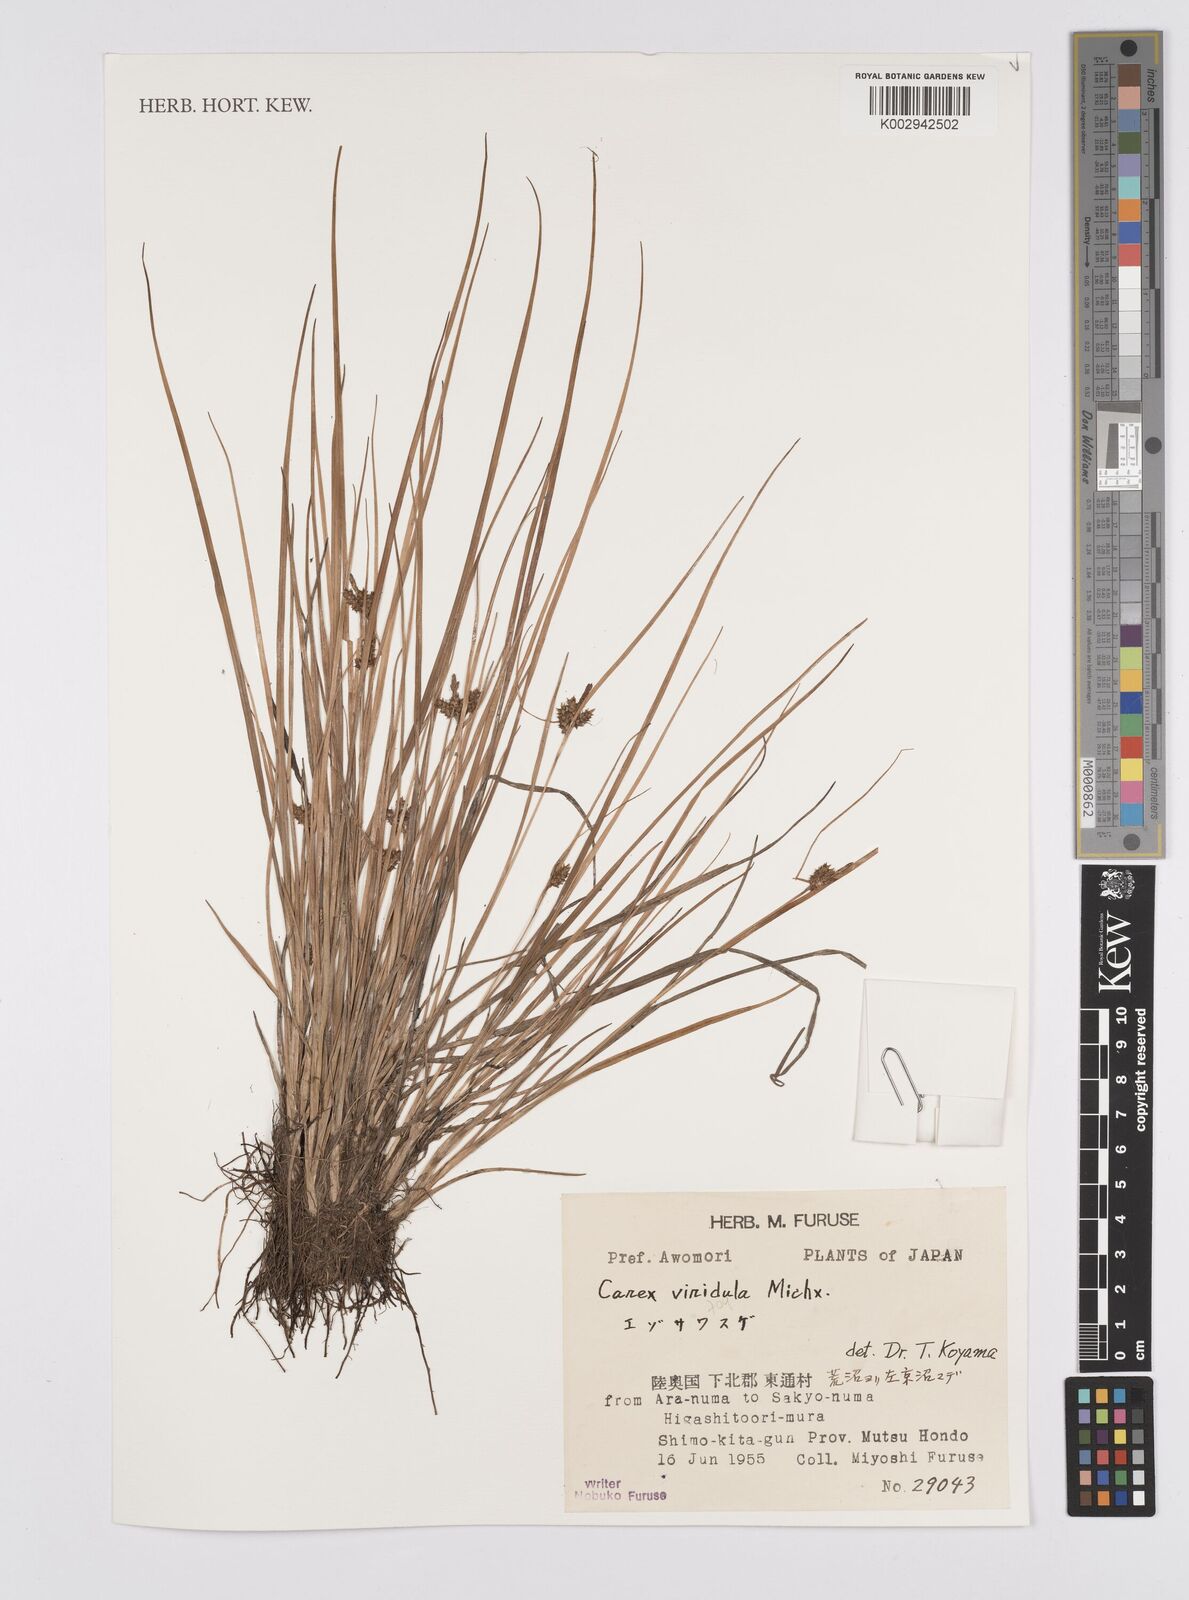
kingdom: Plantae
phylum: Tracheophyta
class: Liliopsida
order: Poales
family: Cyperaceae
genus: Carex
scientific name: Carex oederi
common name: Common & small-fruited yellow-sedge
